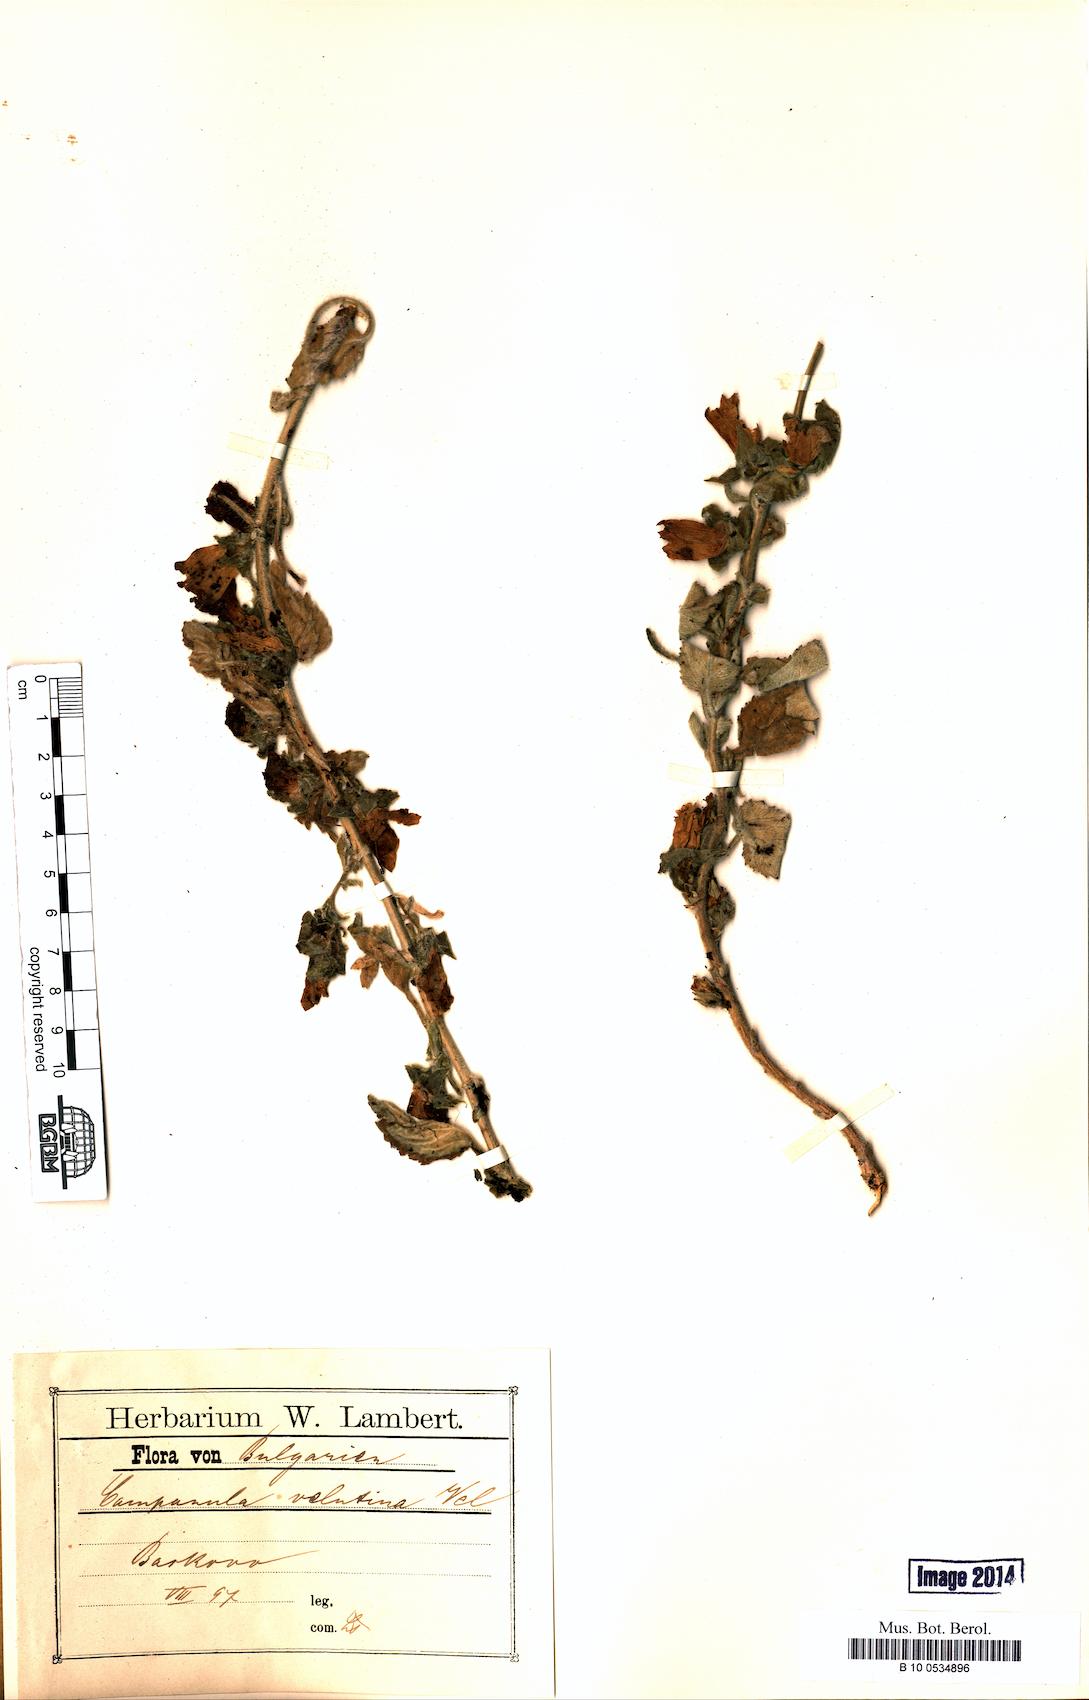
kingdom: Plantae
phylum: Tracheophyta
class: Magnoliopsida
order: Asterales
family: Campanulaceae
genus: Campanula
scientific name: Campanula lanata
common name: Woolly bellflower
